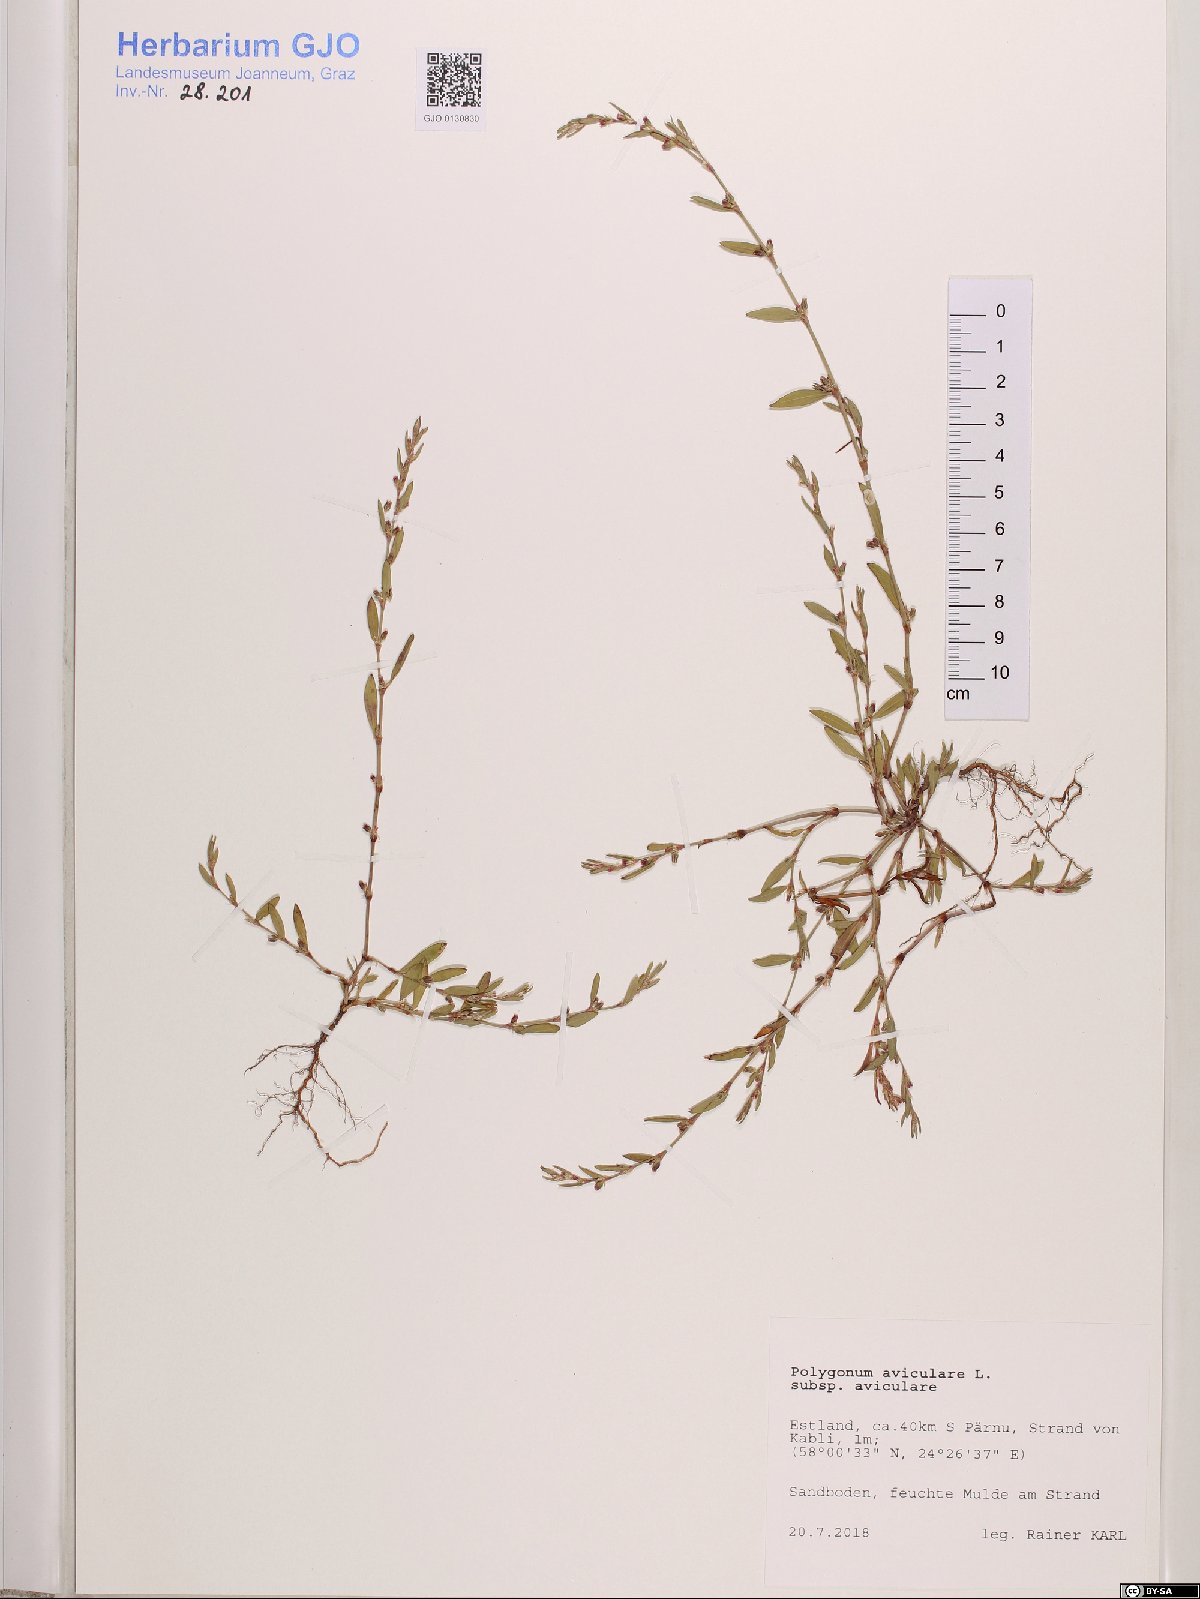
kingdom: Plantae
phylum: Tracheophyta
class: Magnoliopsida
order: Caryophyllales
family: Polygonaceae
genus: Polygonum
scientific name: Polygonum aviculare
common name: Prostrate knotweed
